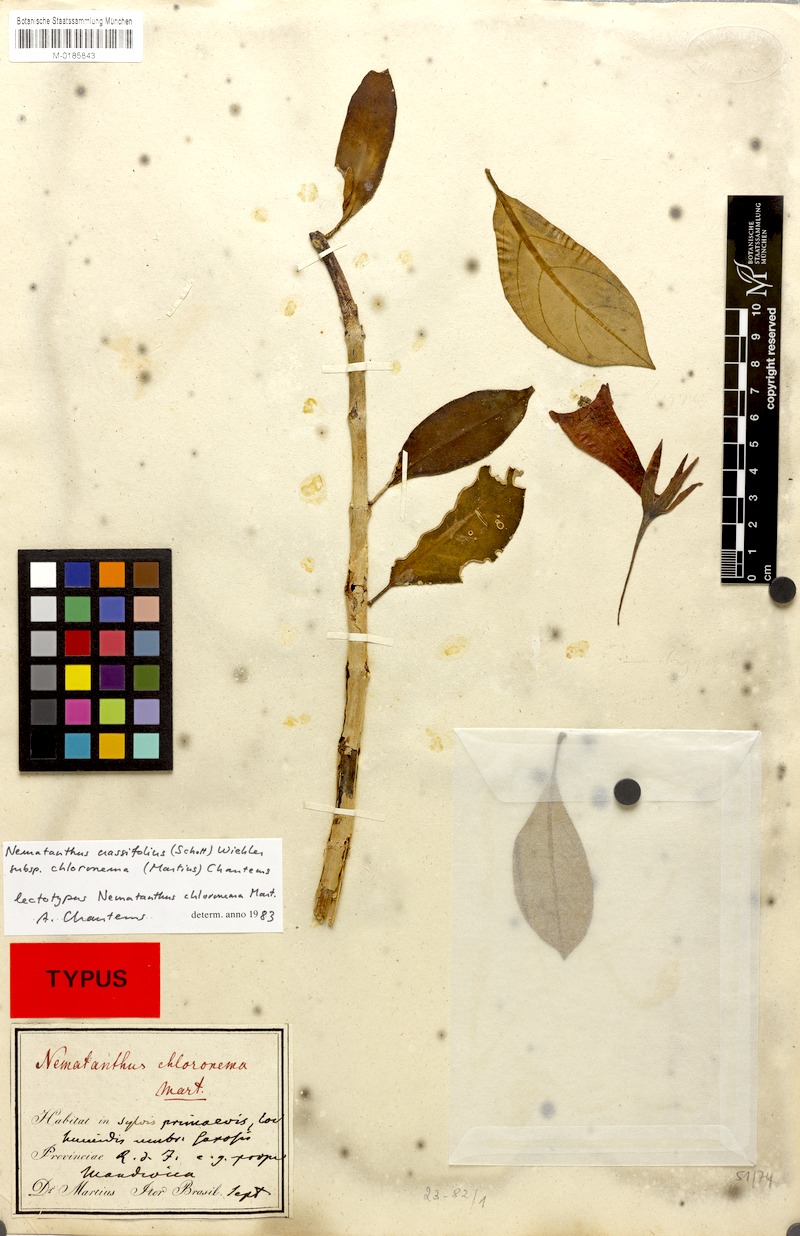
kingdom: Plantae
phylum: Tracheophyta
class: Magnoliopsida
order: Lamiales
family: Gesneriaceae
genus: Nematanthus
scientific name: Nematanthus crassifolius
